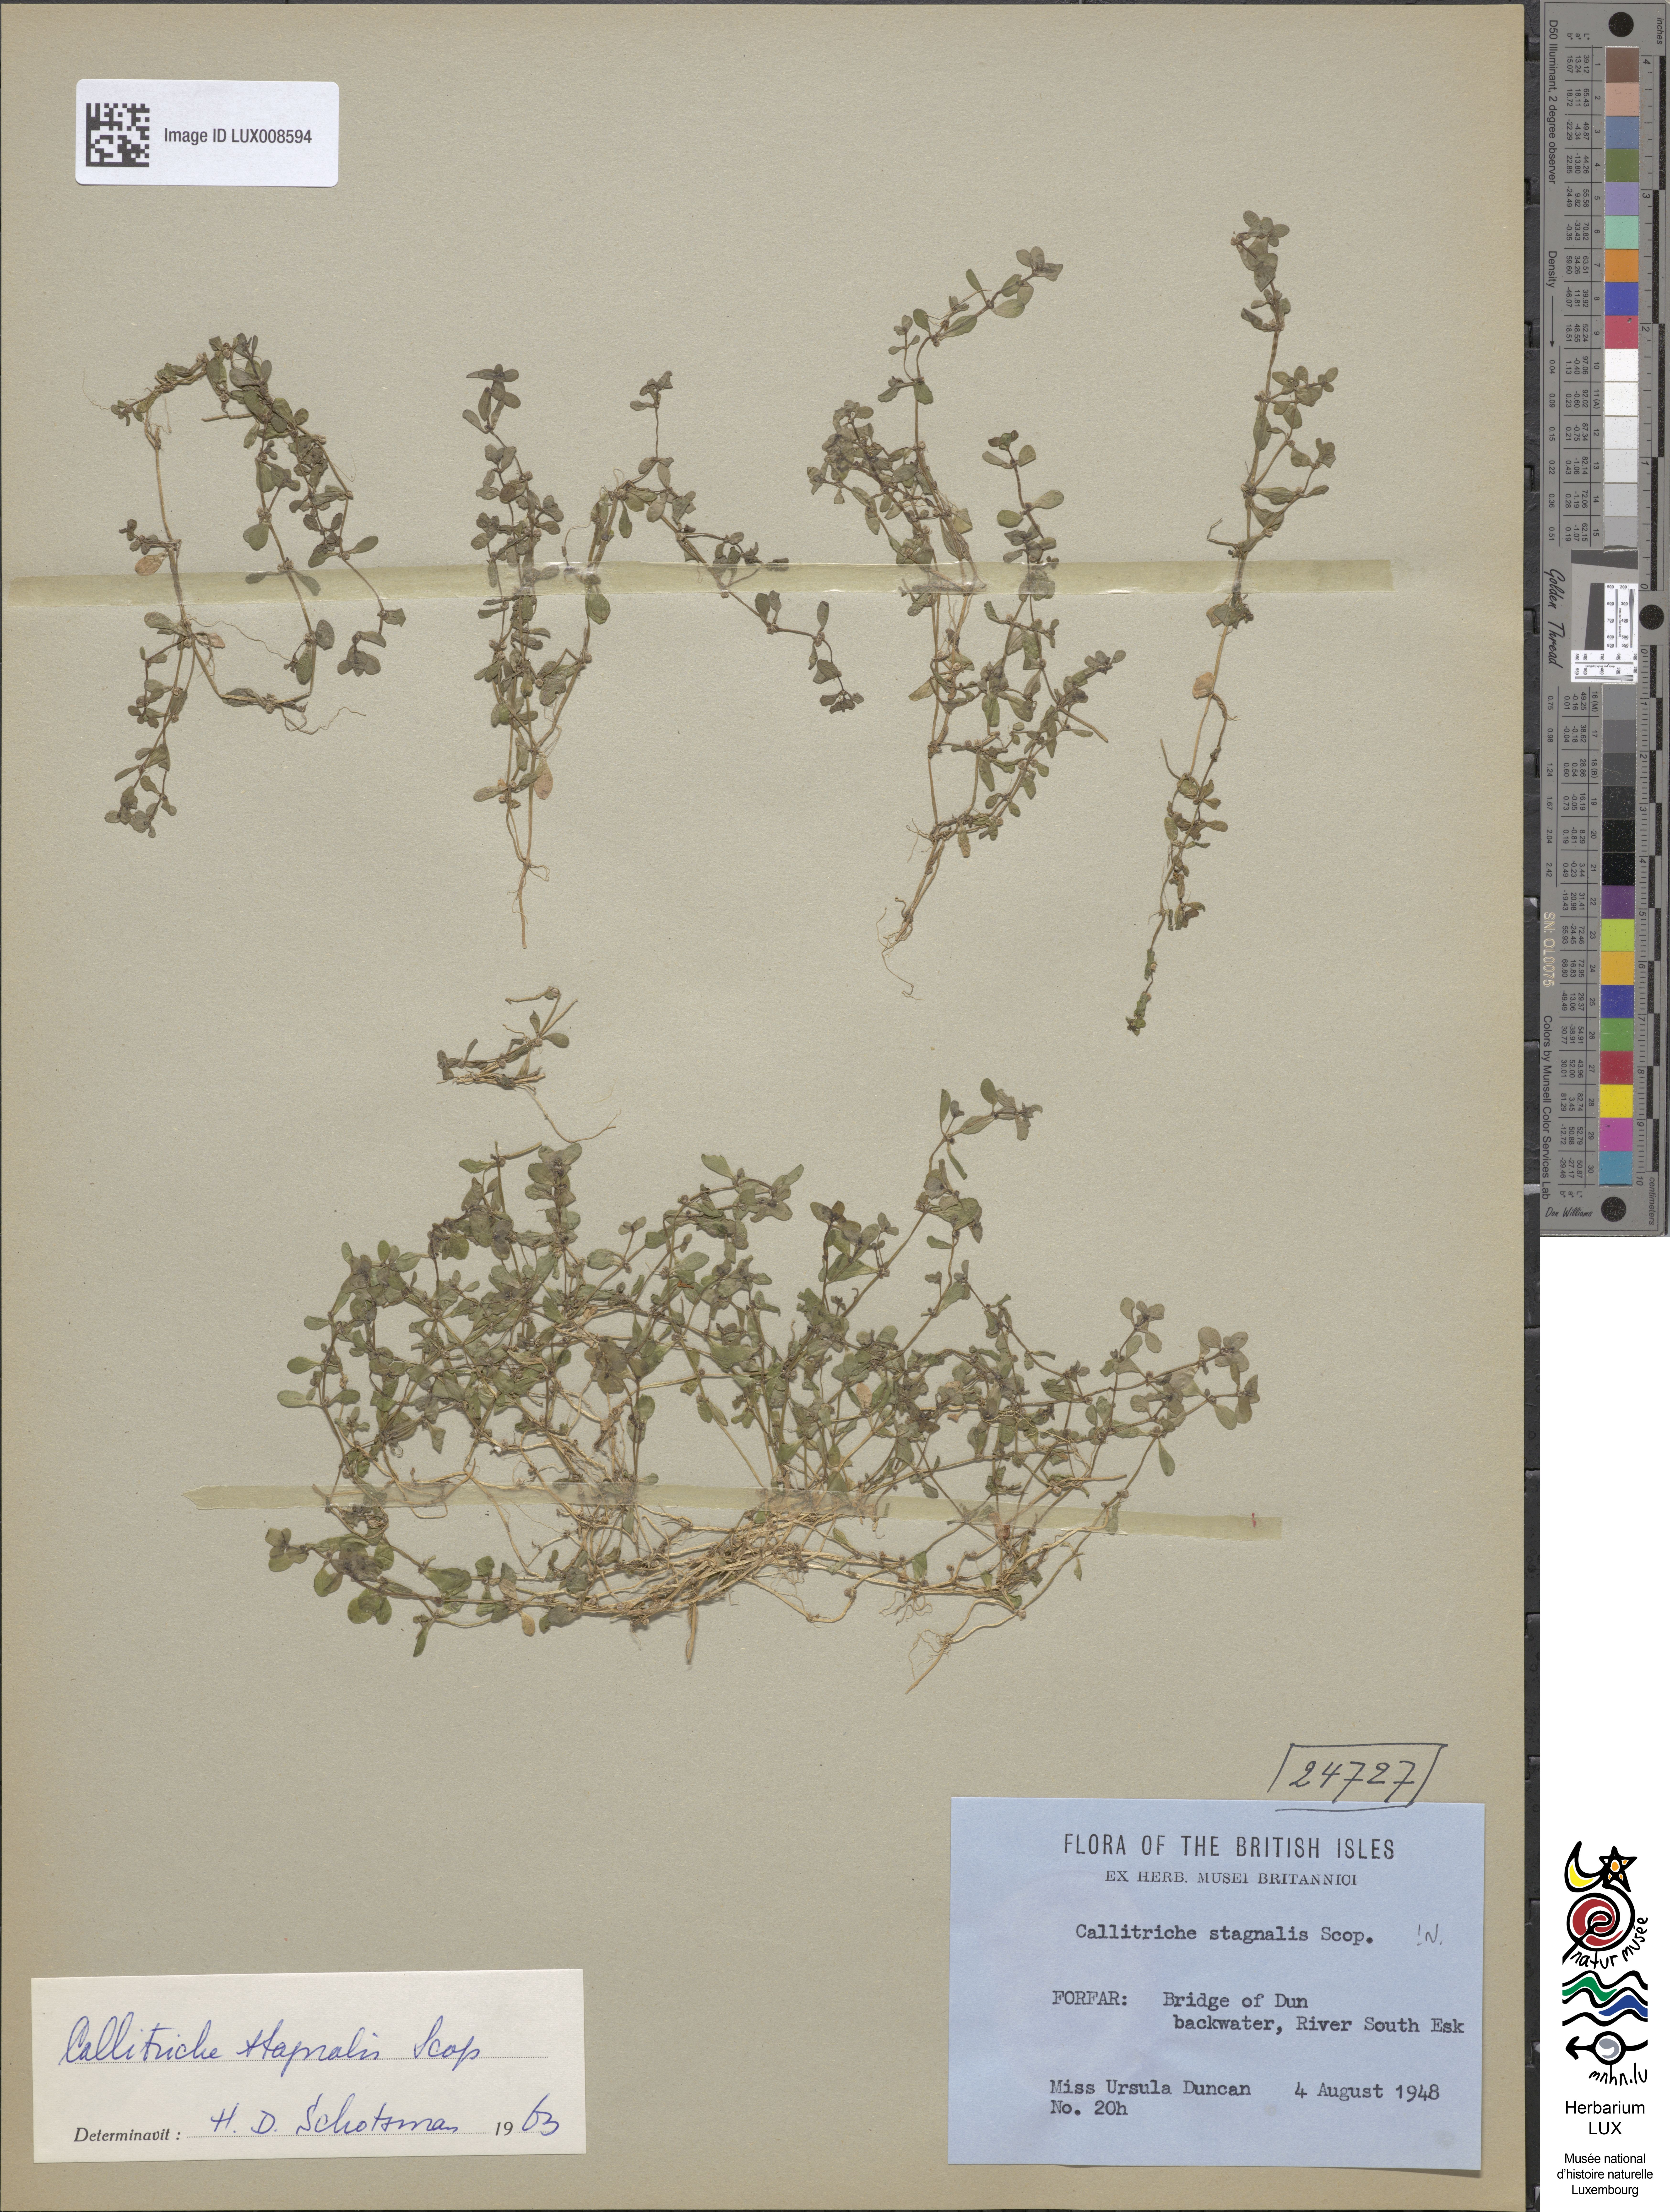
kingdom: Plantae
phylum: Tracheophyta
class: Magnoliopsida
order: Lamiales
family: Plantaginaceae
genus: Callitriche
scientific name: Callitriche stagnalis
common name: Common water-starwort
